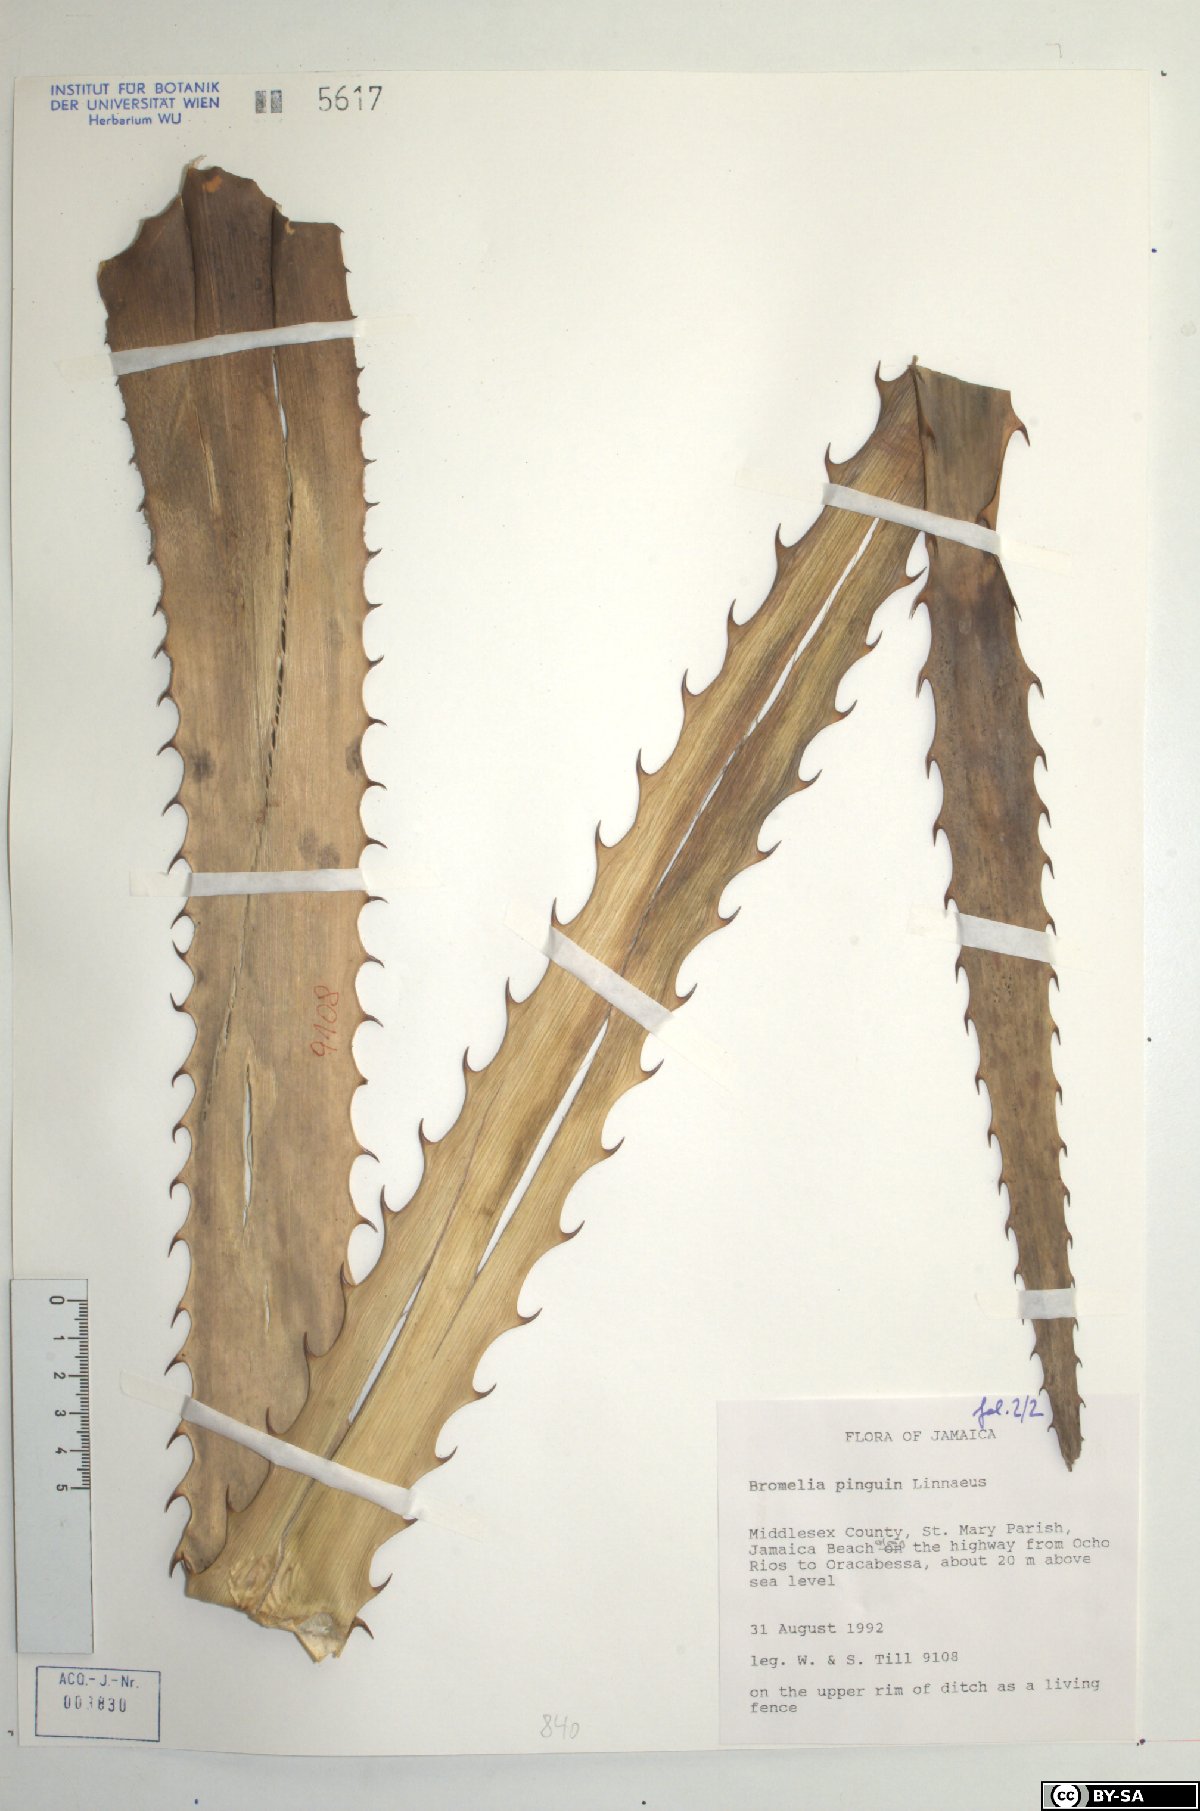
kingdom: Plantae
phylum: Tracheophyta
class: Liliopsida
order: Poales
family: Bromeliaceae
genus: Bromelia
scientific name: Bromelia pinguin
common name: Pinguin
